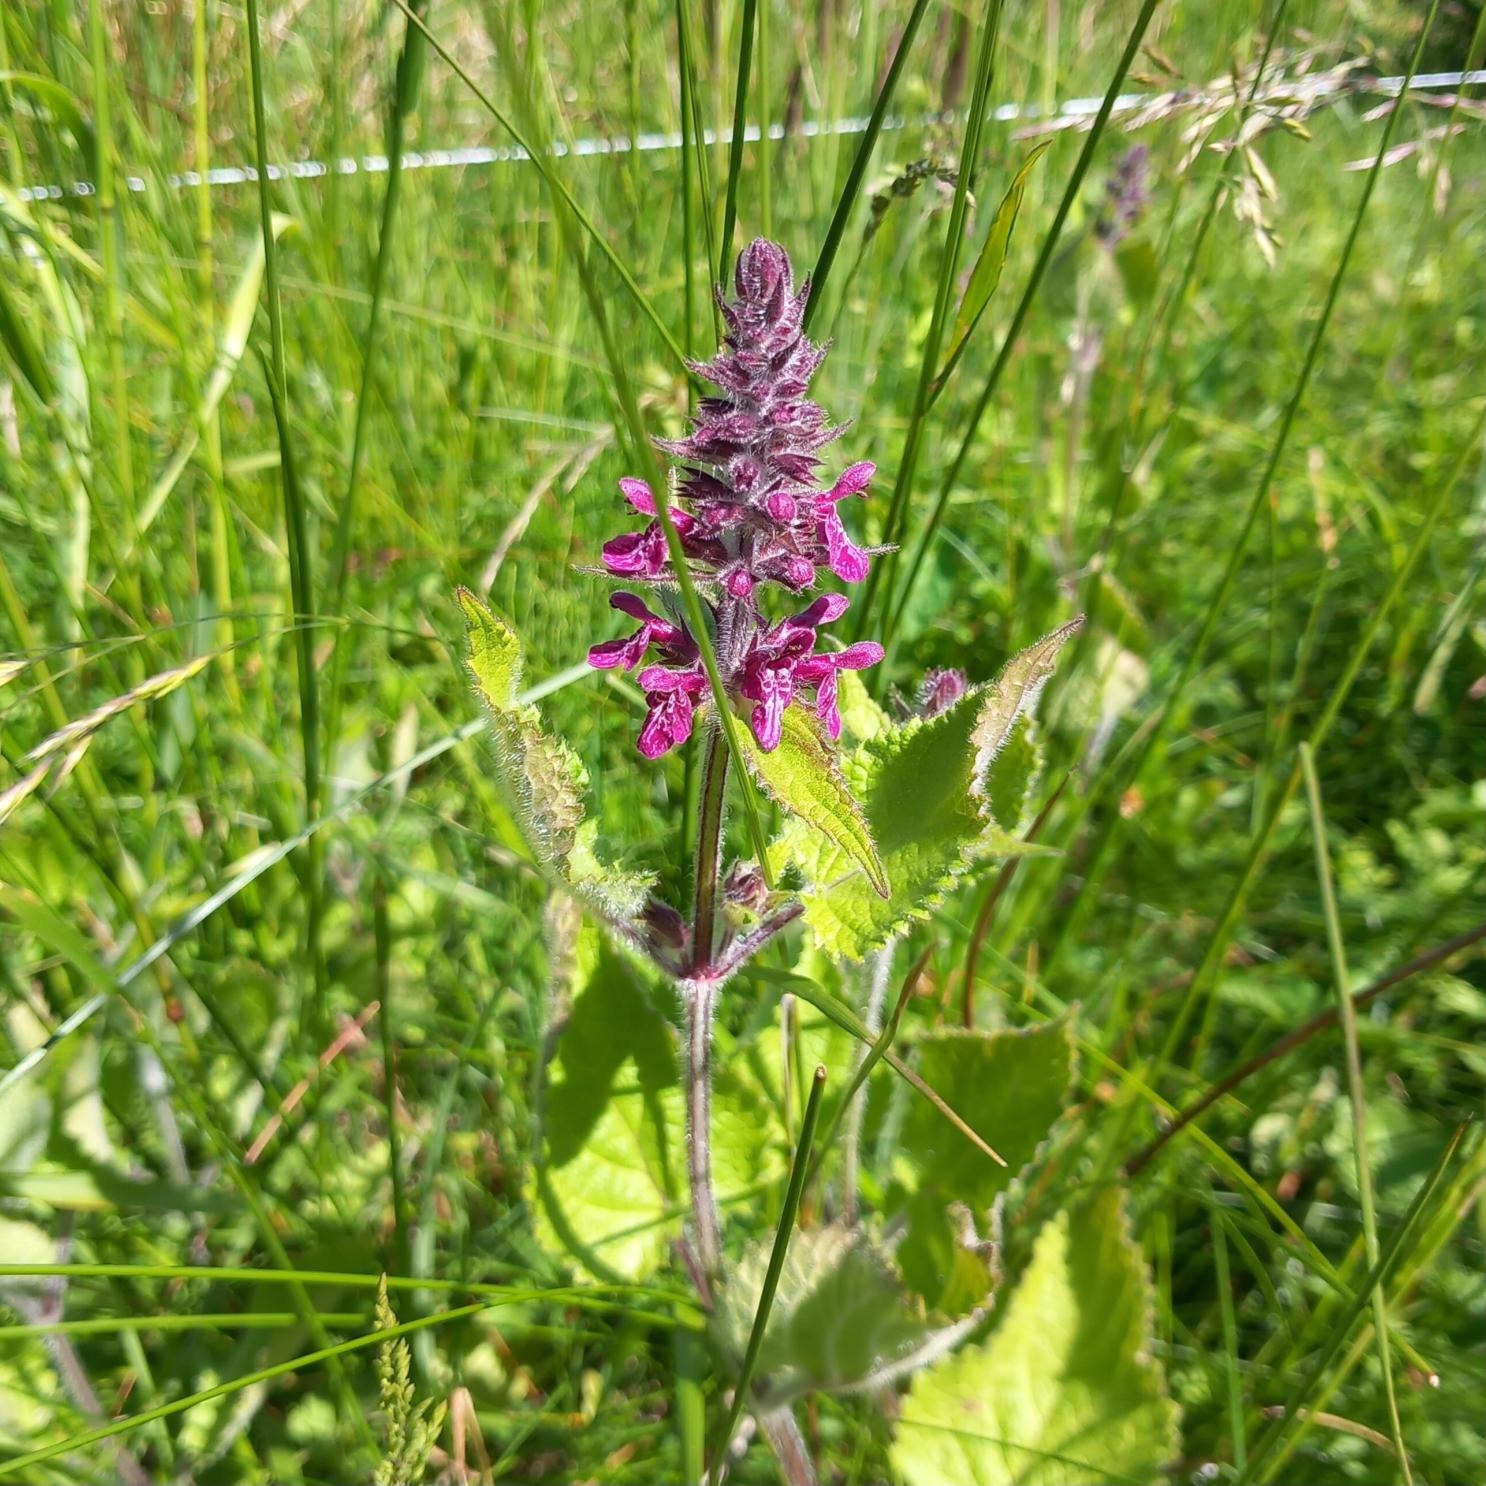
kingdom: Plantae
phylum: Tracheophyta
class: Magnoliopsida
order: Lamiales
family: Lamiaceae
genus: Stachys
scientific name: Stachys sylvatica
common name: Skov-galtetand
